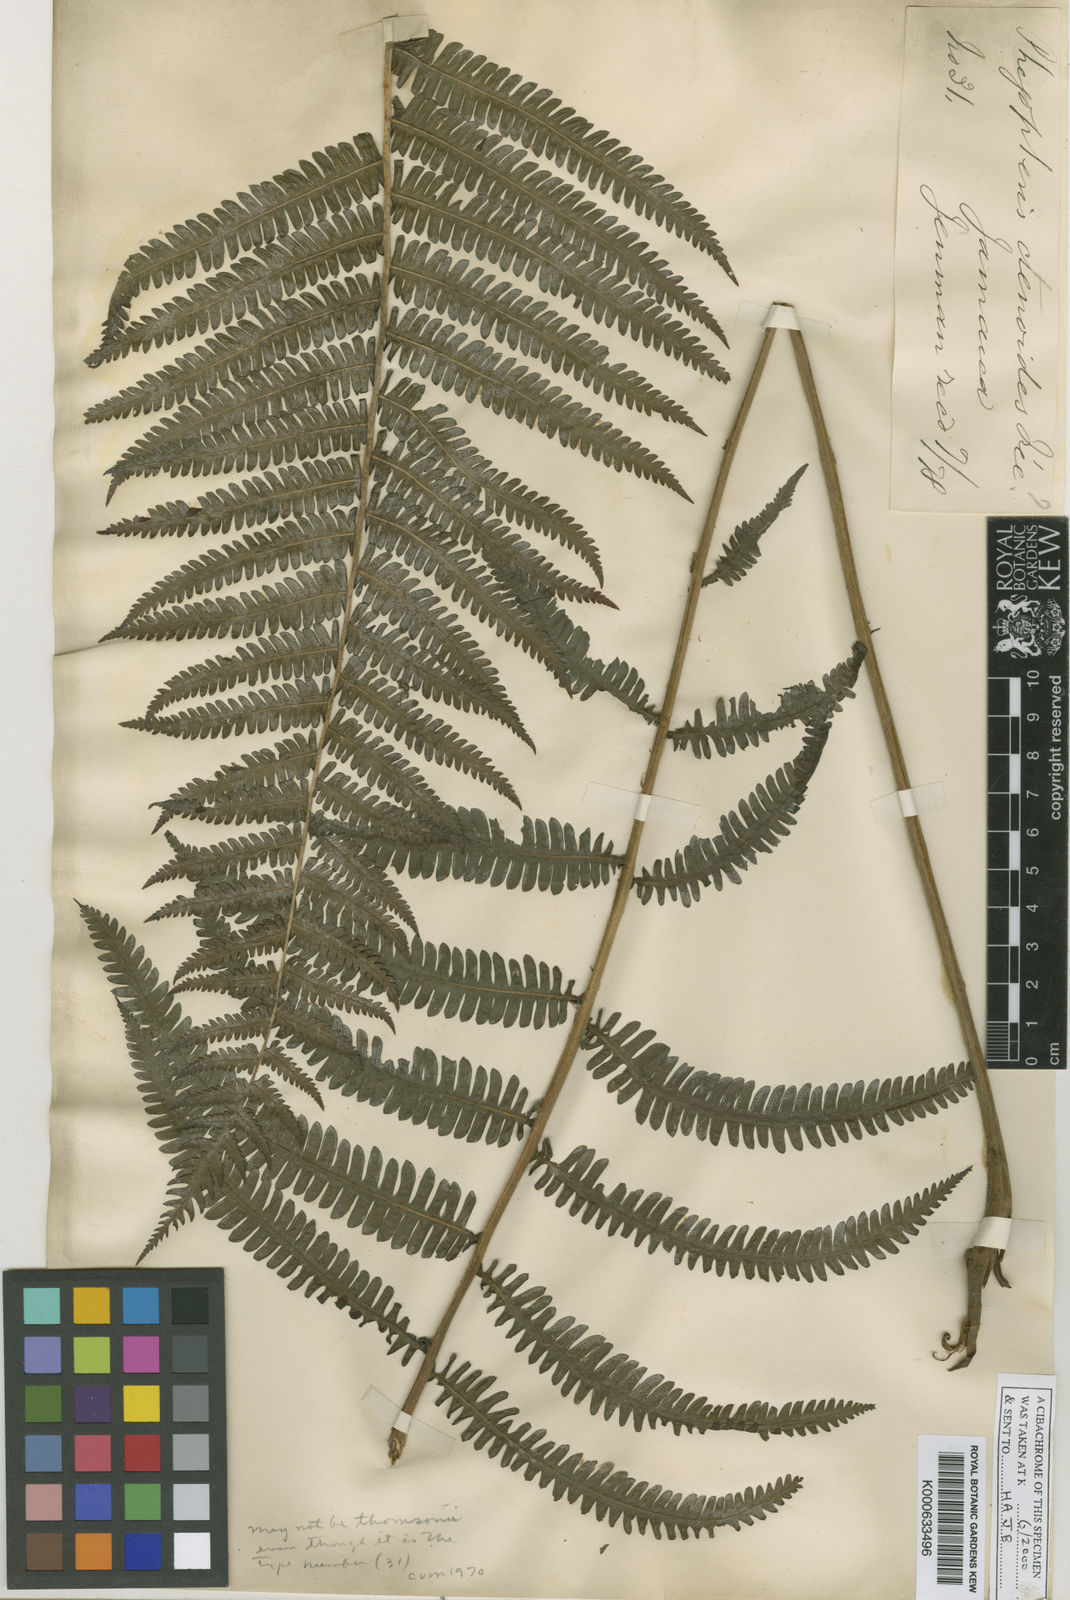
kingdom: Plantae
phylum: Tracheophyta
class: Polypodiopsida
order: Polypodiales
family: Thelypteridaceae
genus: Amauropelta
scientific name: Amauropelta thomsonii
